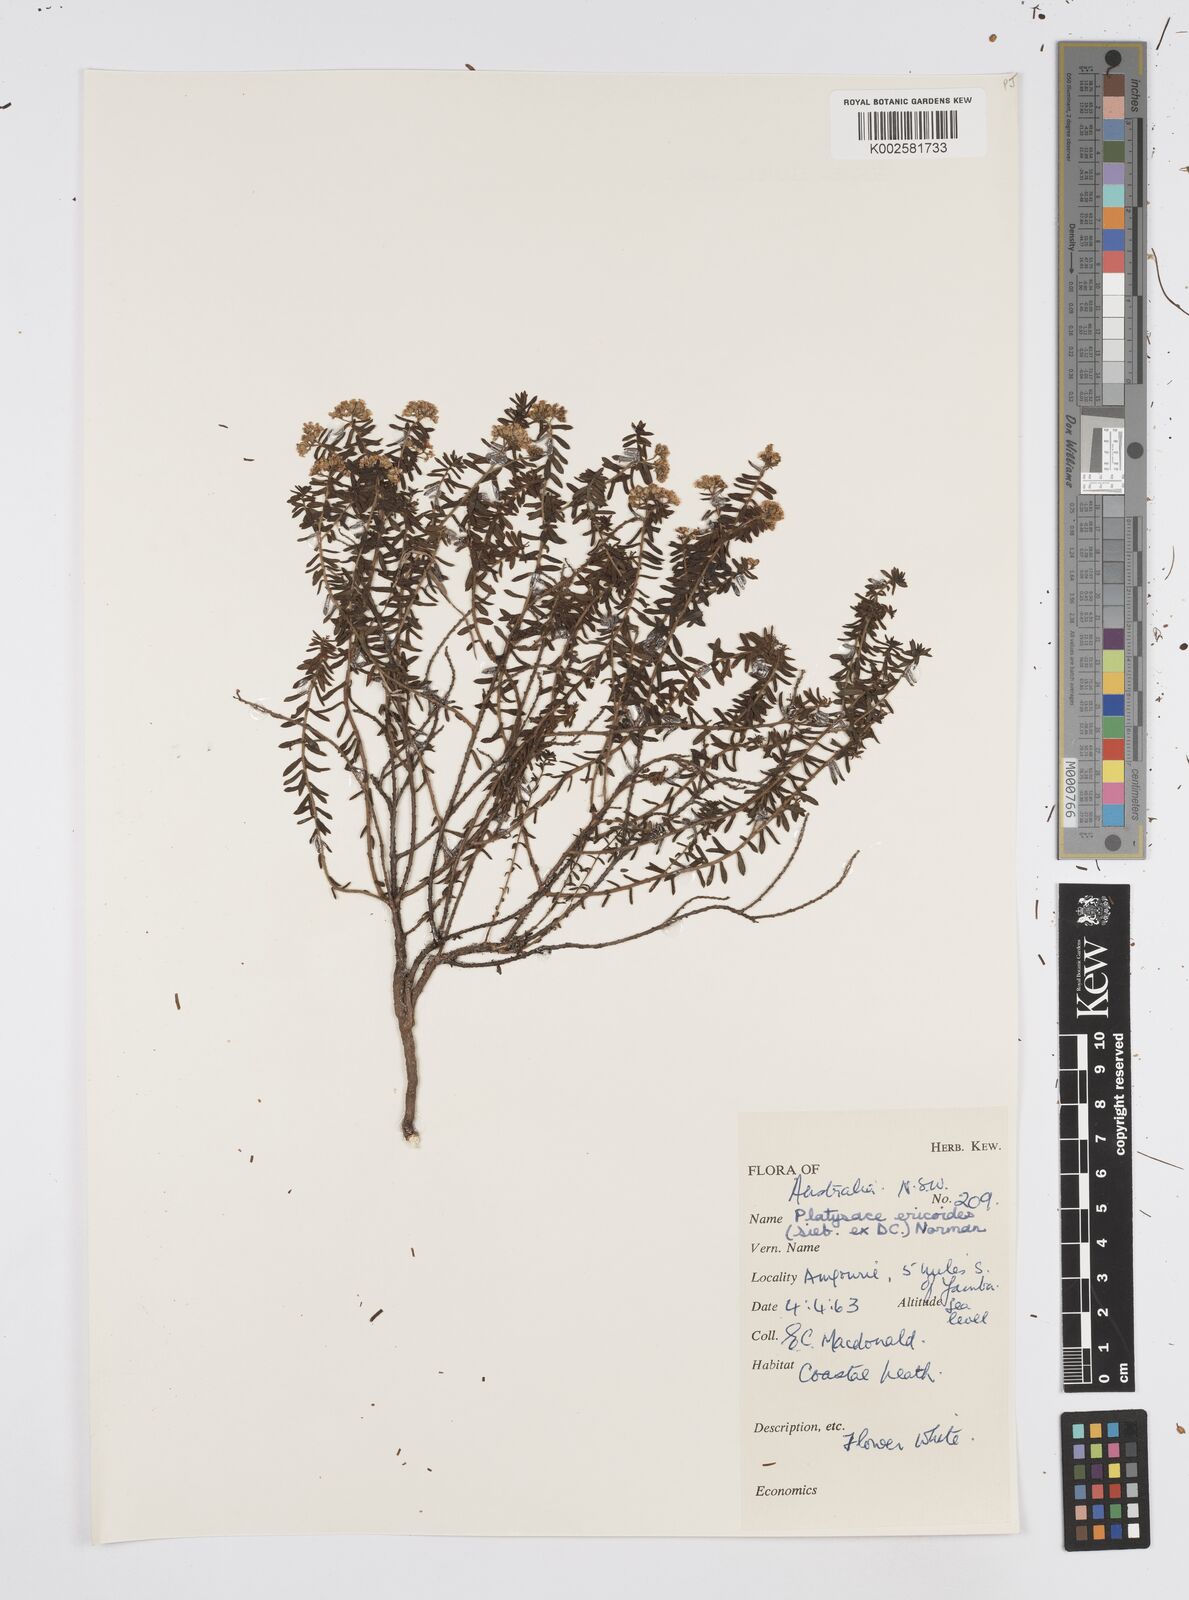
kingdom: Plantae
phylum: Tracheophyta
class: Magnoliopsida
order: Apiales
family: Apiaceae
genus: Platysace
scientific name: Platysace ericoides
